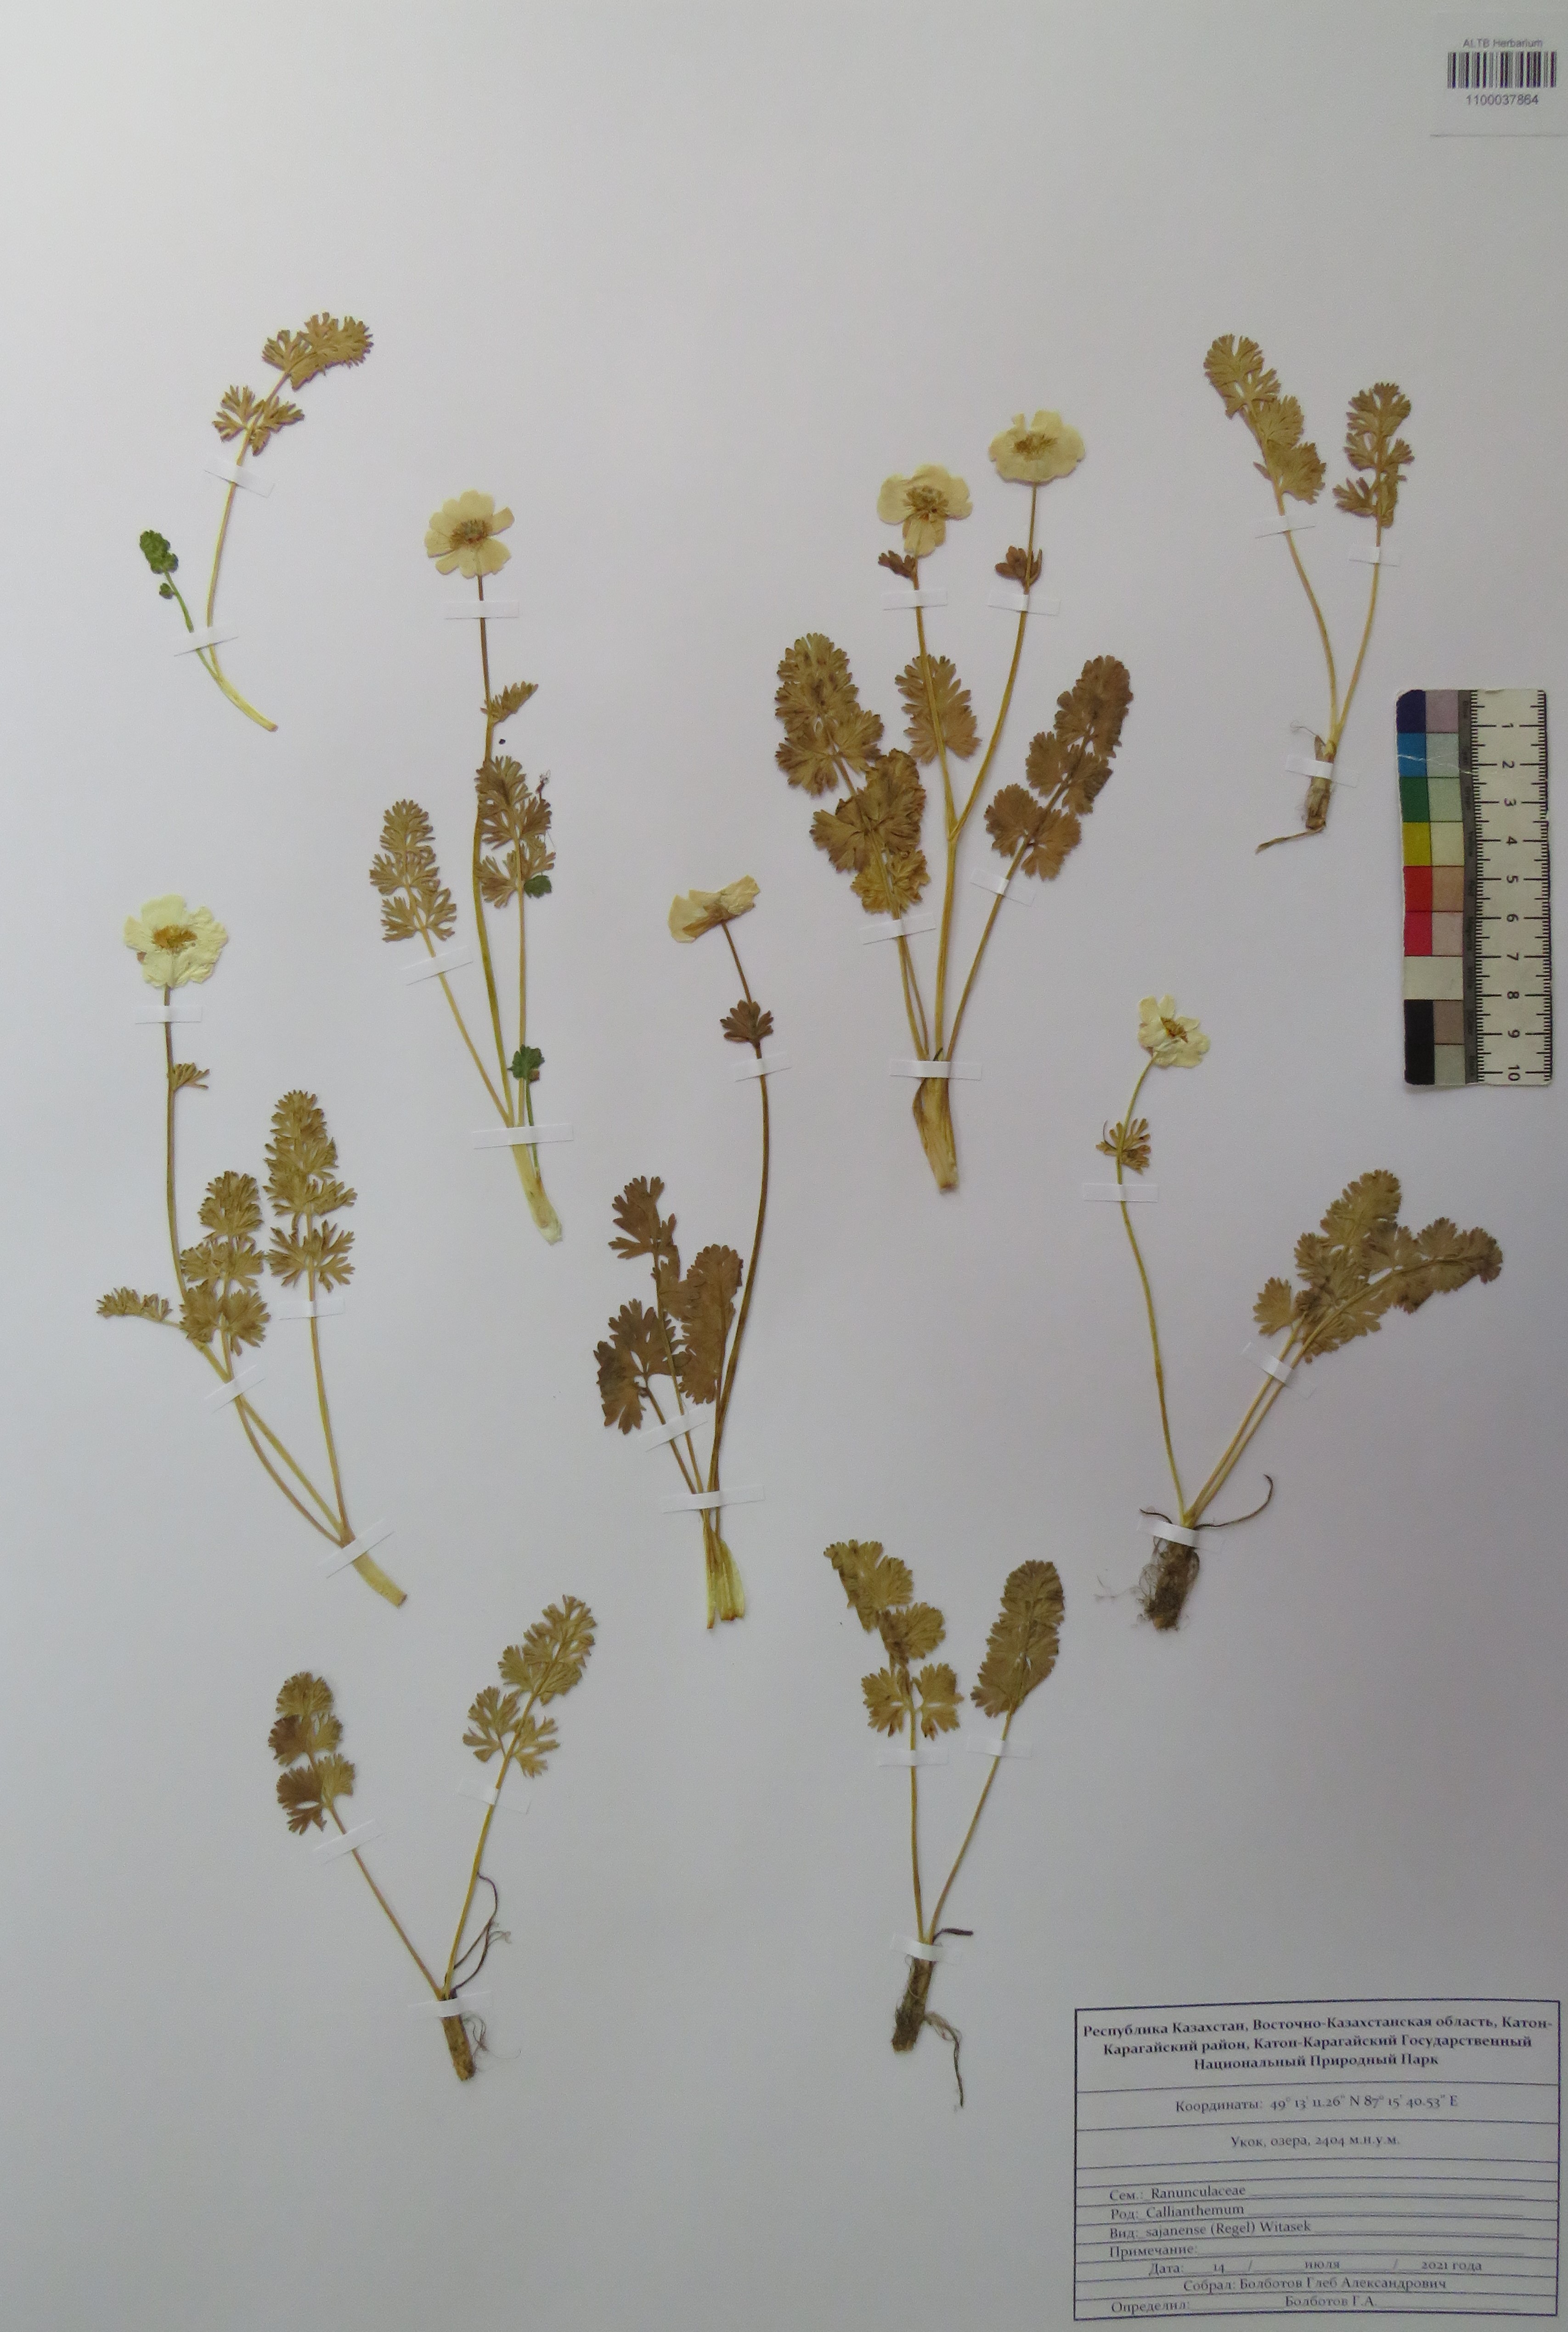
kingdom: Plantae
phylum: Tracheophyta
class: Magnoliopsida
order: Ranunculales
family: Ranunculaceae
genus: Callianthemum
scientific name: Callianthemum sajanense
